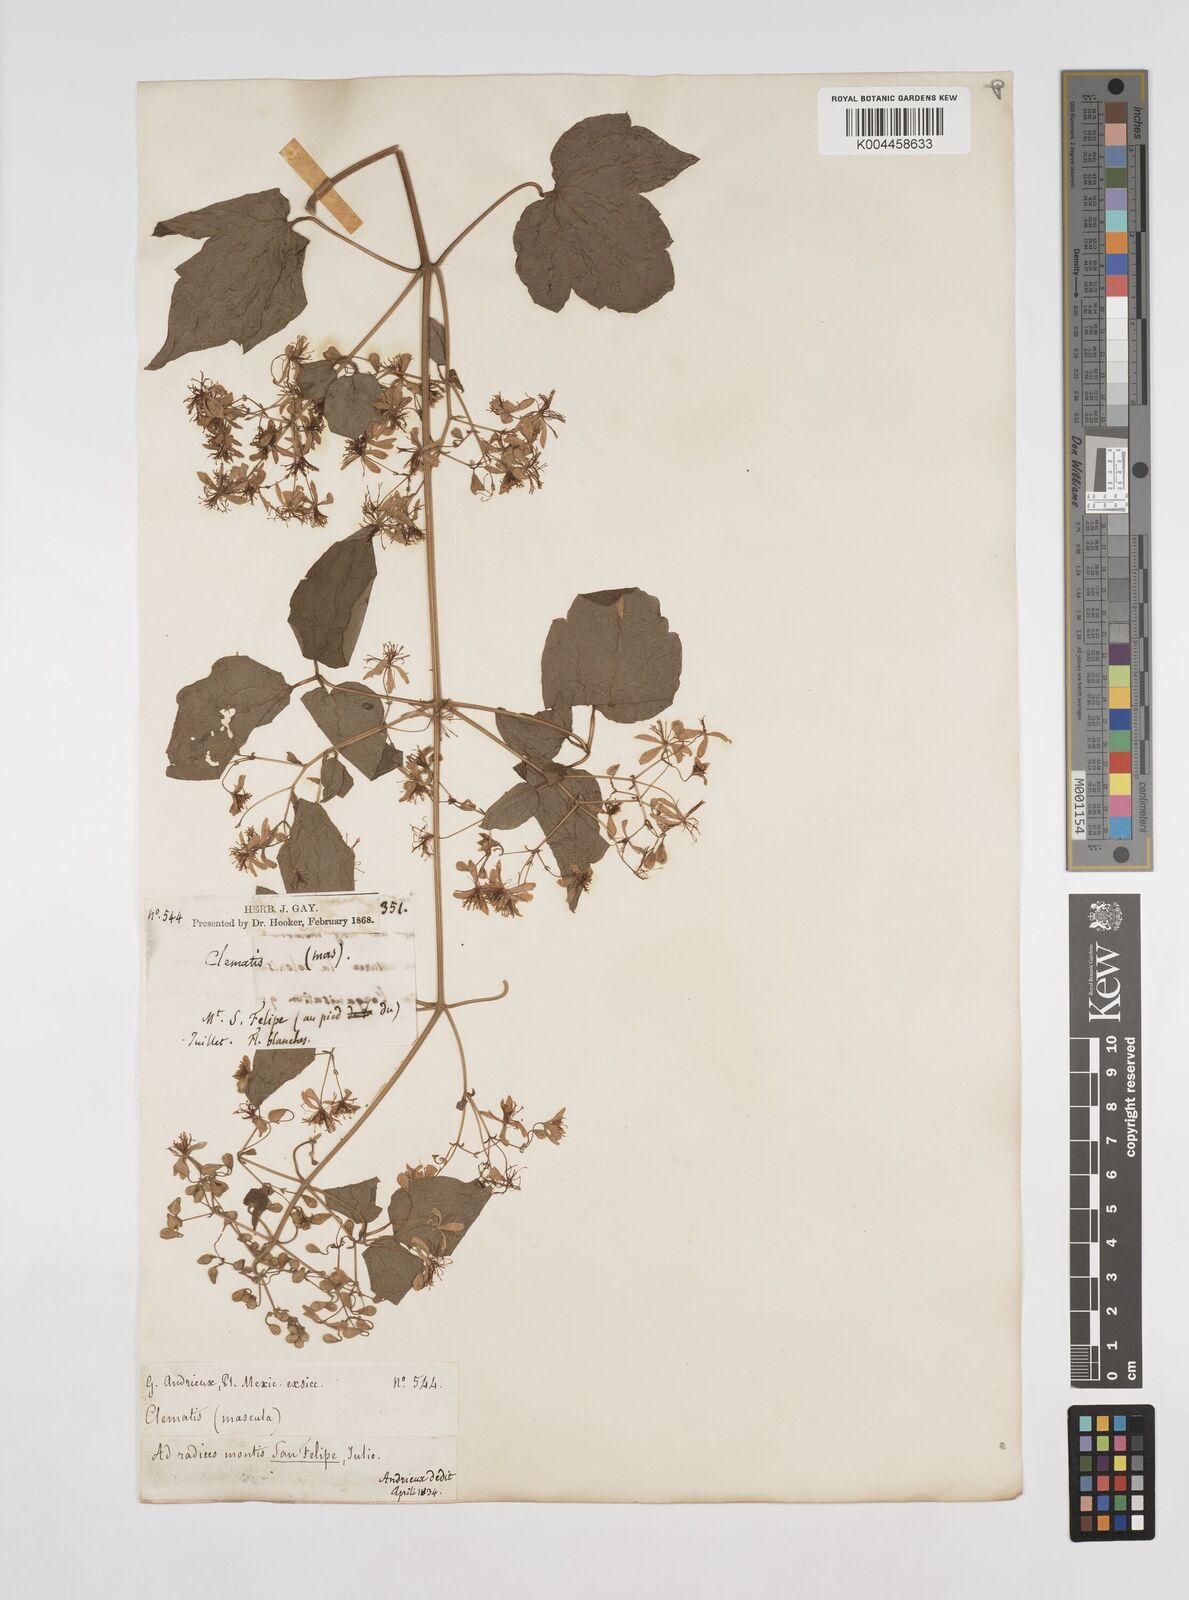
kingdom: Plantae
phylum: Tracheophyta
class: Magnoliopsida
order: Ranunculales
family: Ranunculaceae
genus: Clematis
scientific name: Clematis dioica
